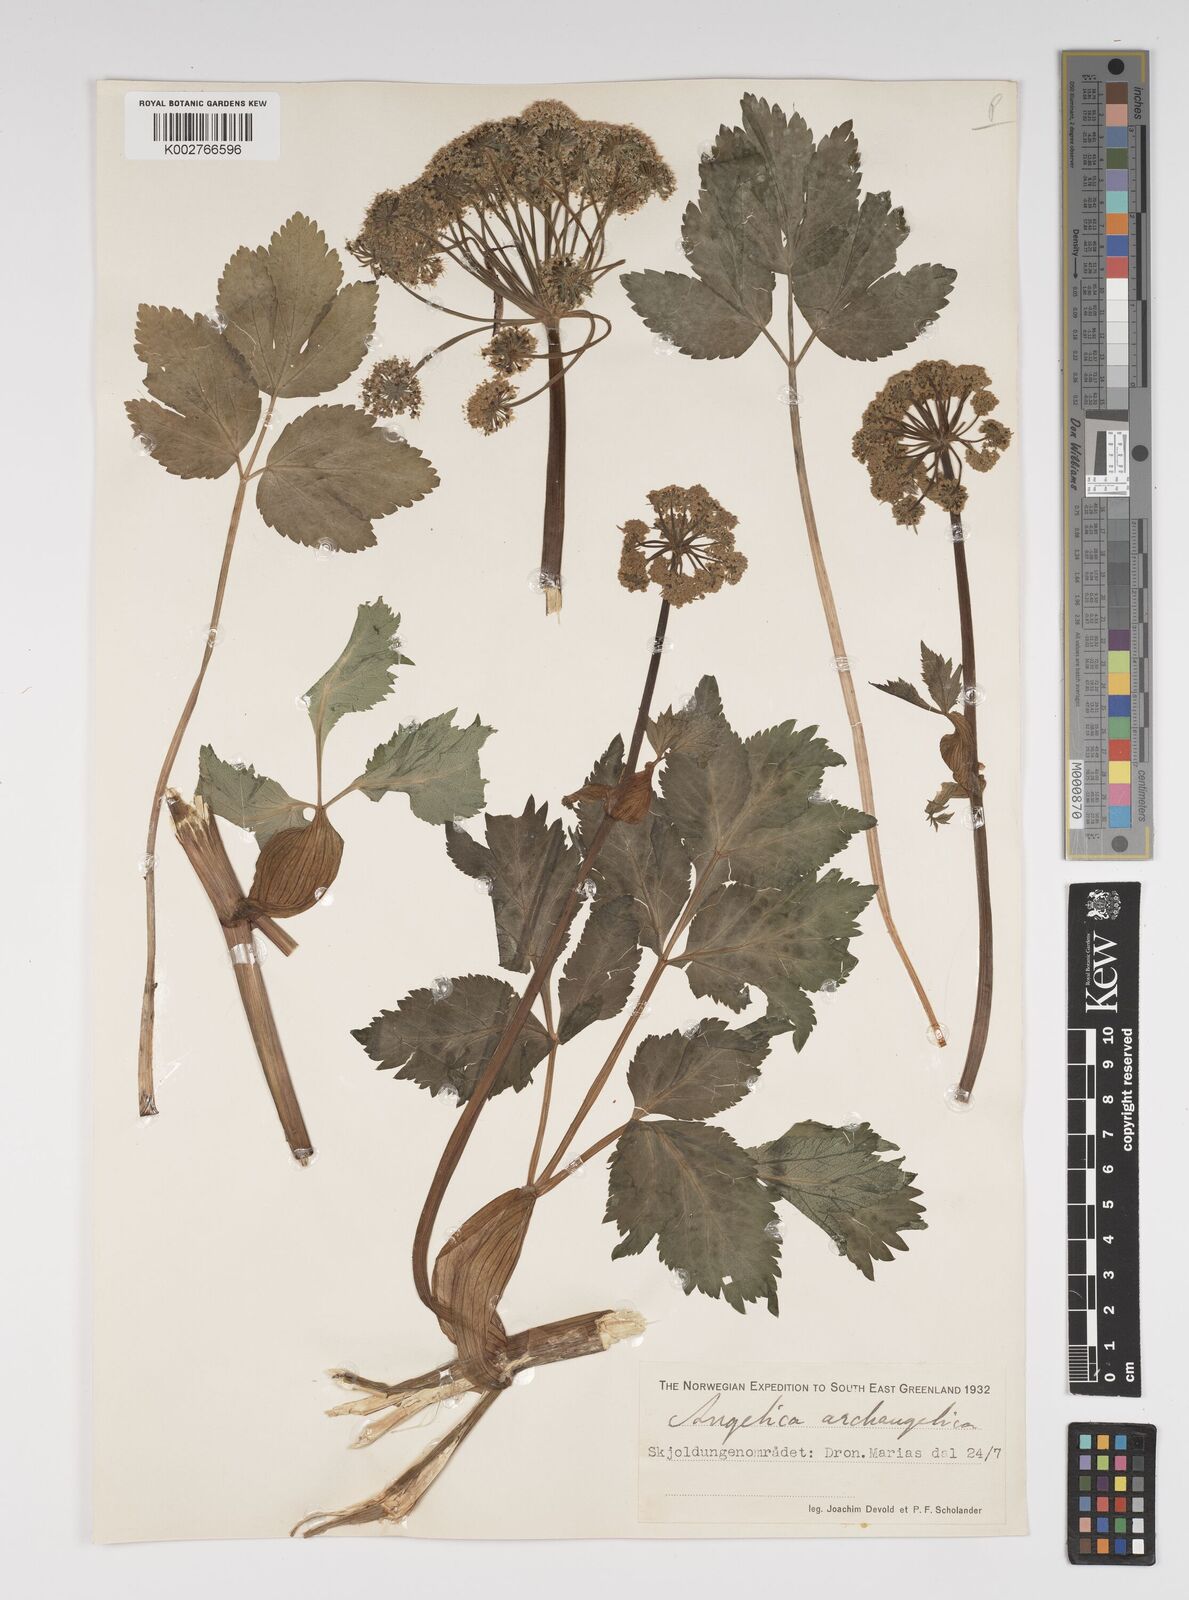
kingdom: Plantae
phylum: Tracheophyta
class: Magnoliopsida
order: Apiales
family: Apiaceae
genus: Angelica
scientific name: Angelica archangelica
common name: Garden angelica
